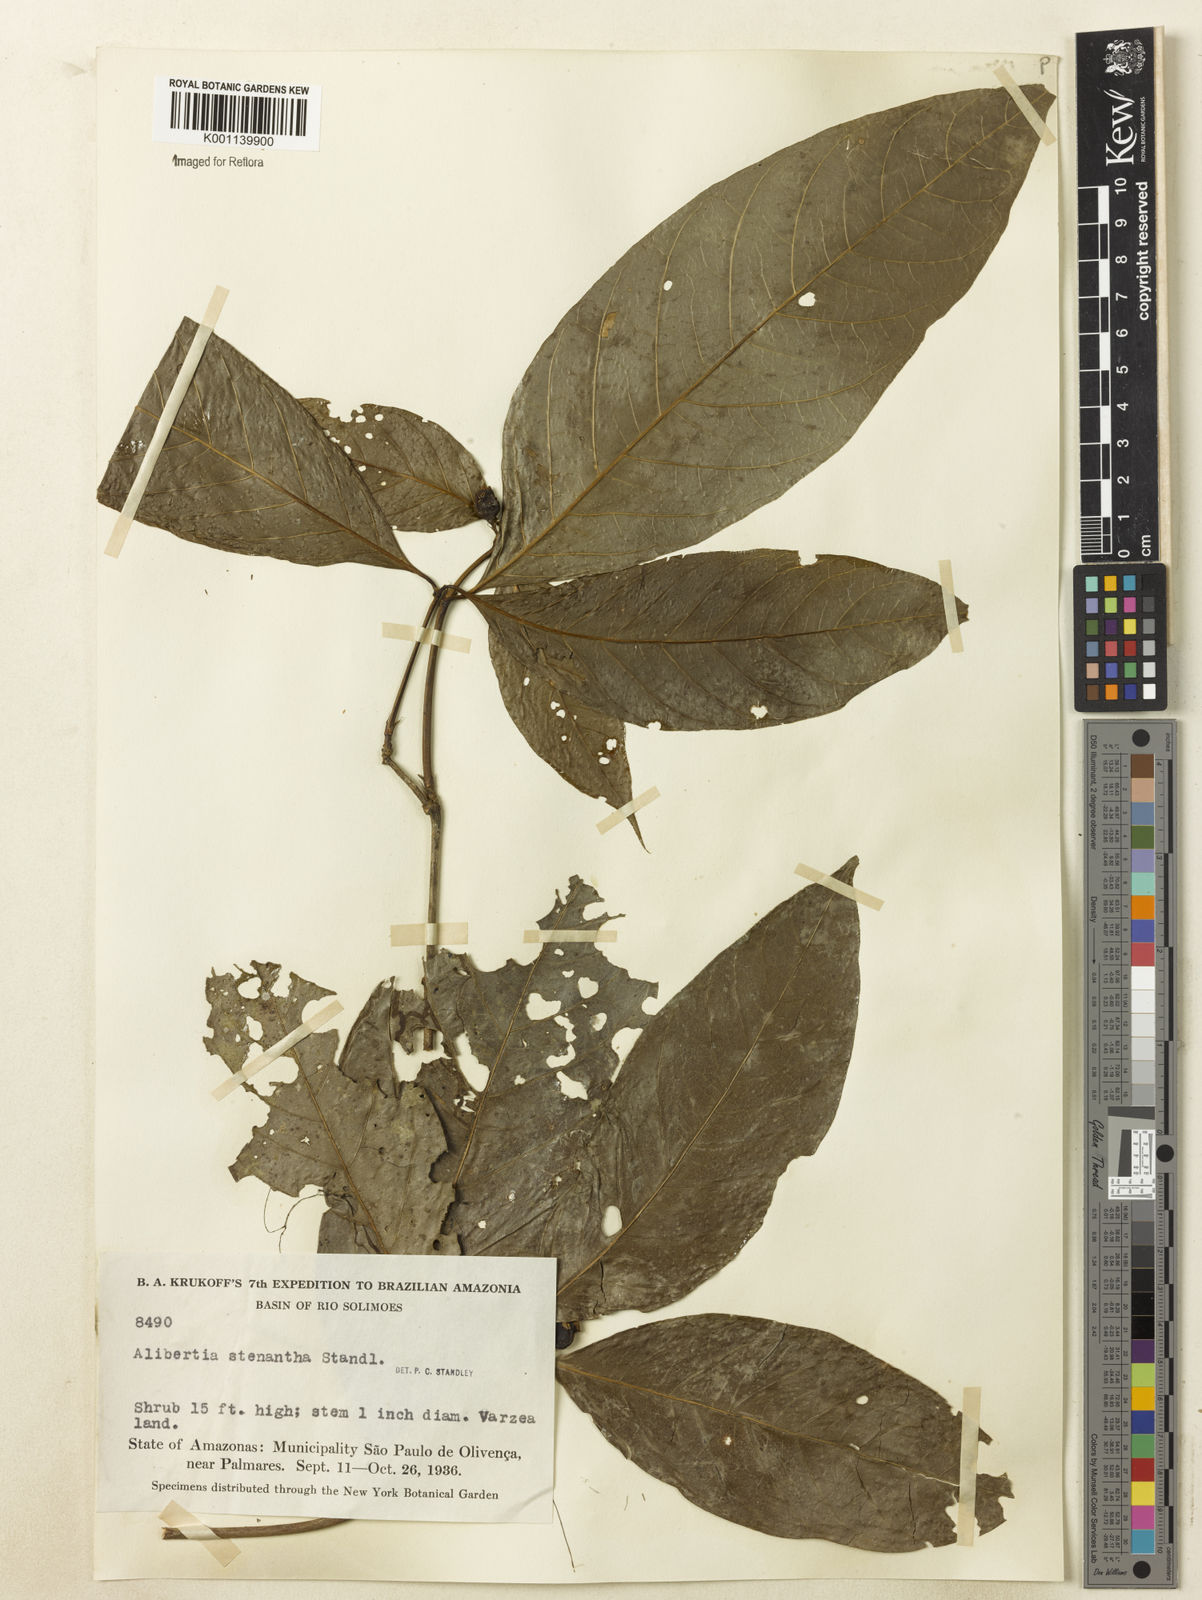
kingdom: Plantae
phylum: Tracheophyta
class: Magnoliopsida
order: Gentianales
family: Rubiaceae
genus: Alibertia
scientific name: Alibertia bertierifolia
